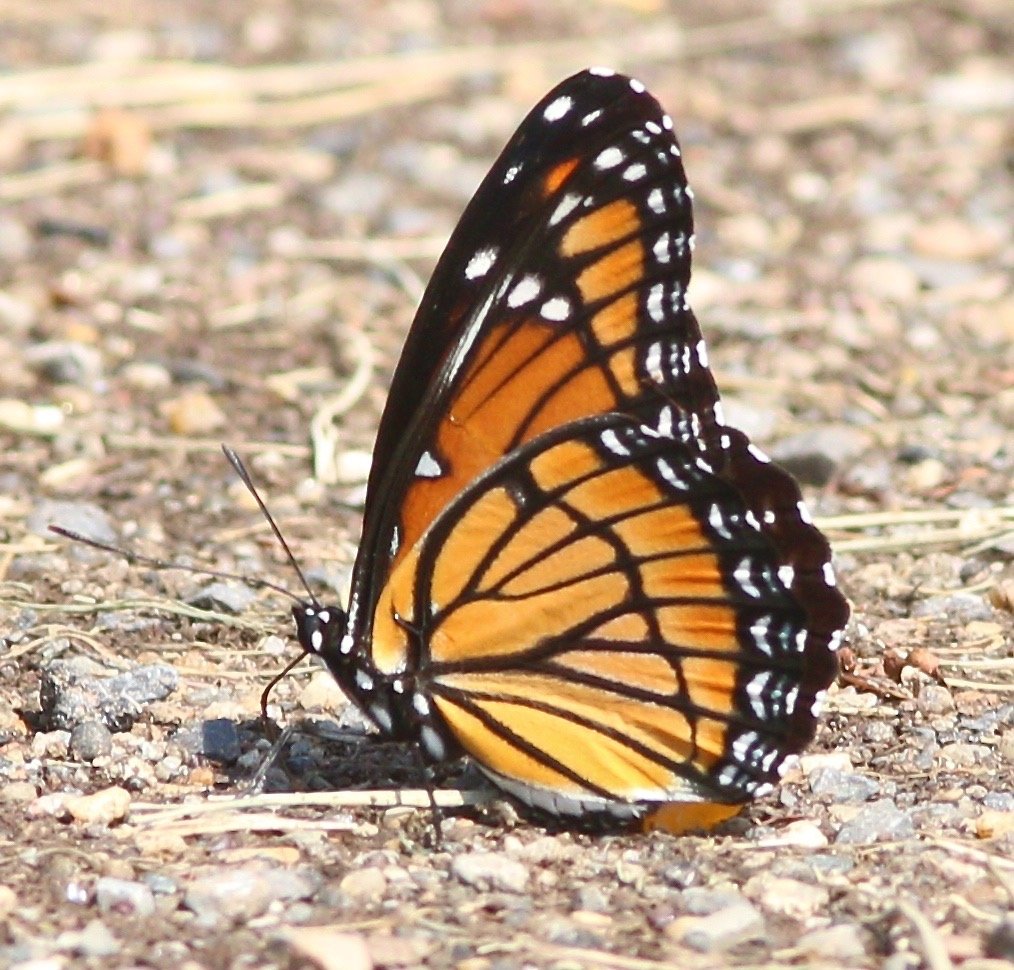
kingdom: Animalia
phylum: Arthropoda
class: Insecta
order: Lepidoptera
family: Nymphalidae
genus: Limenitis
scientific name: Limenitis archippus
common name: Viceroy
